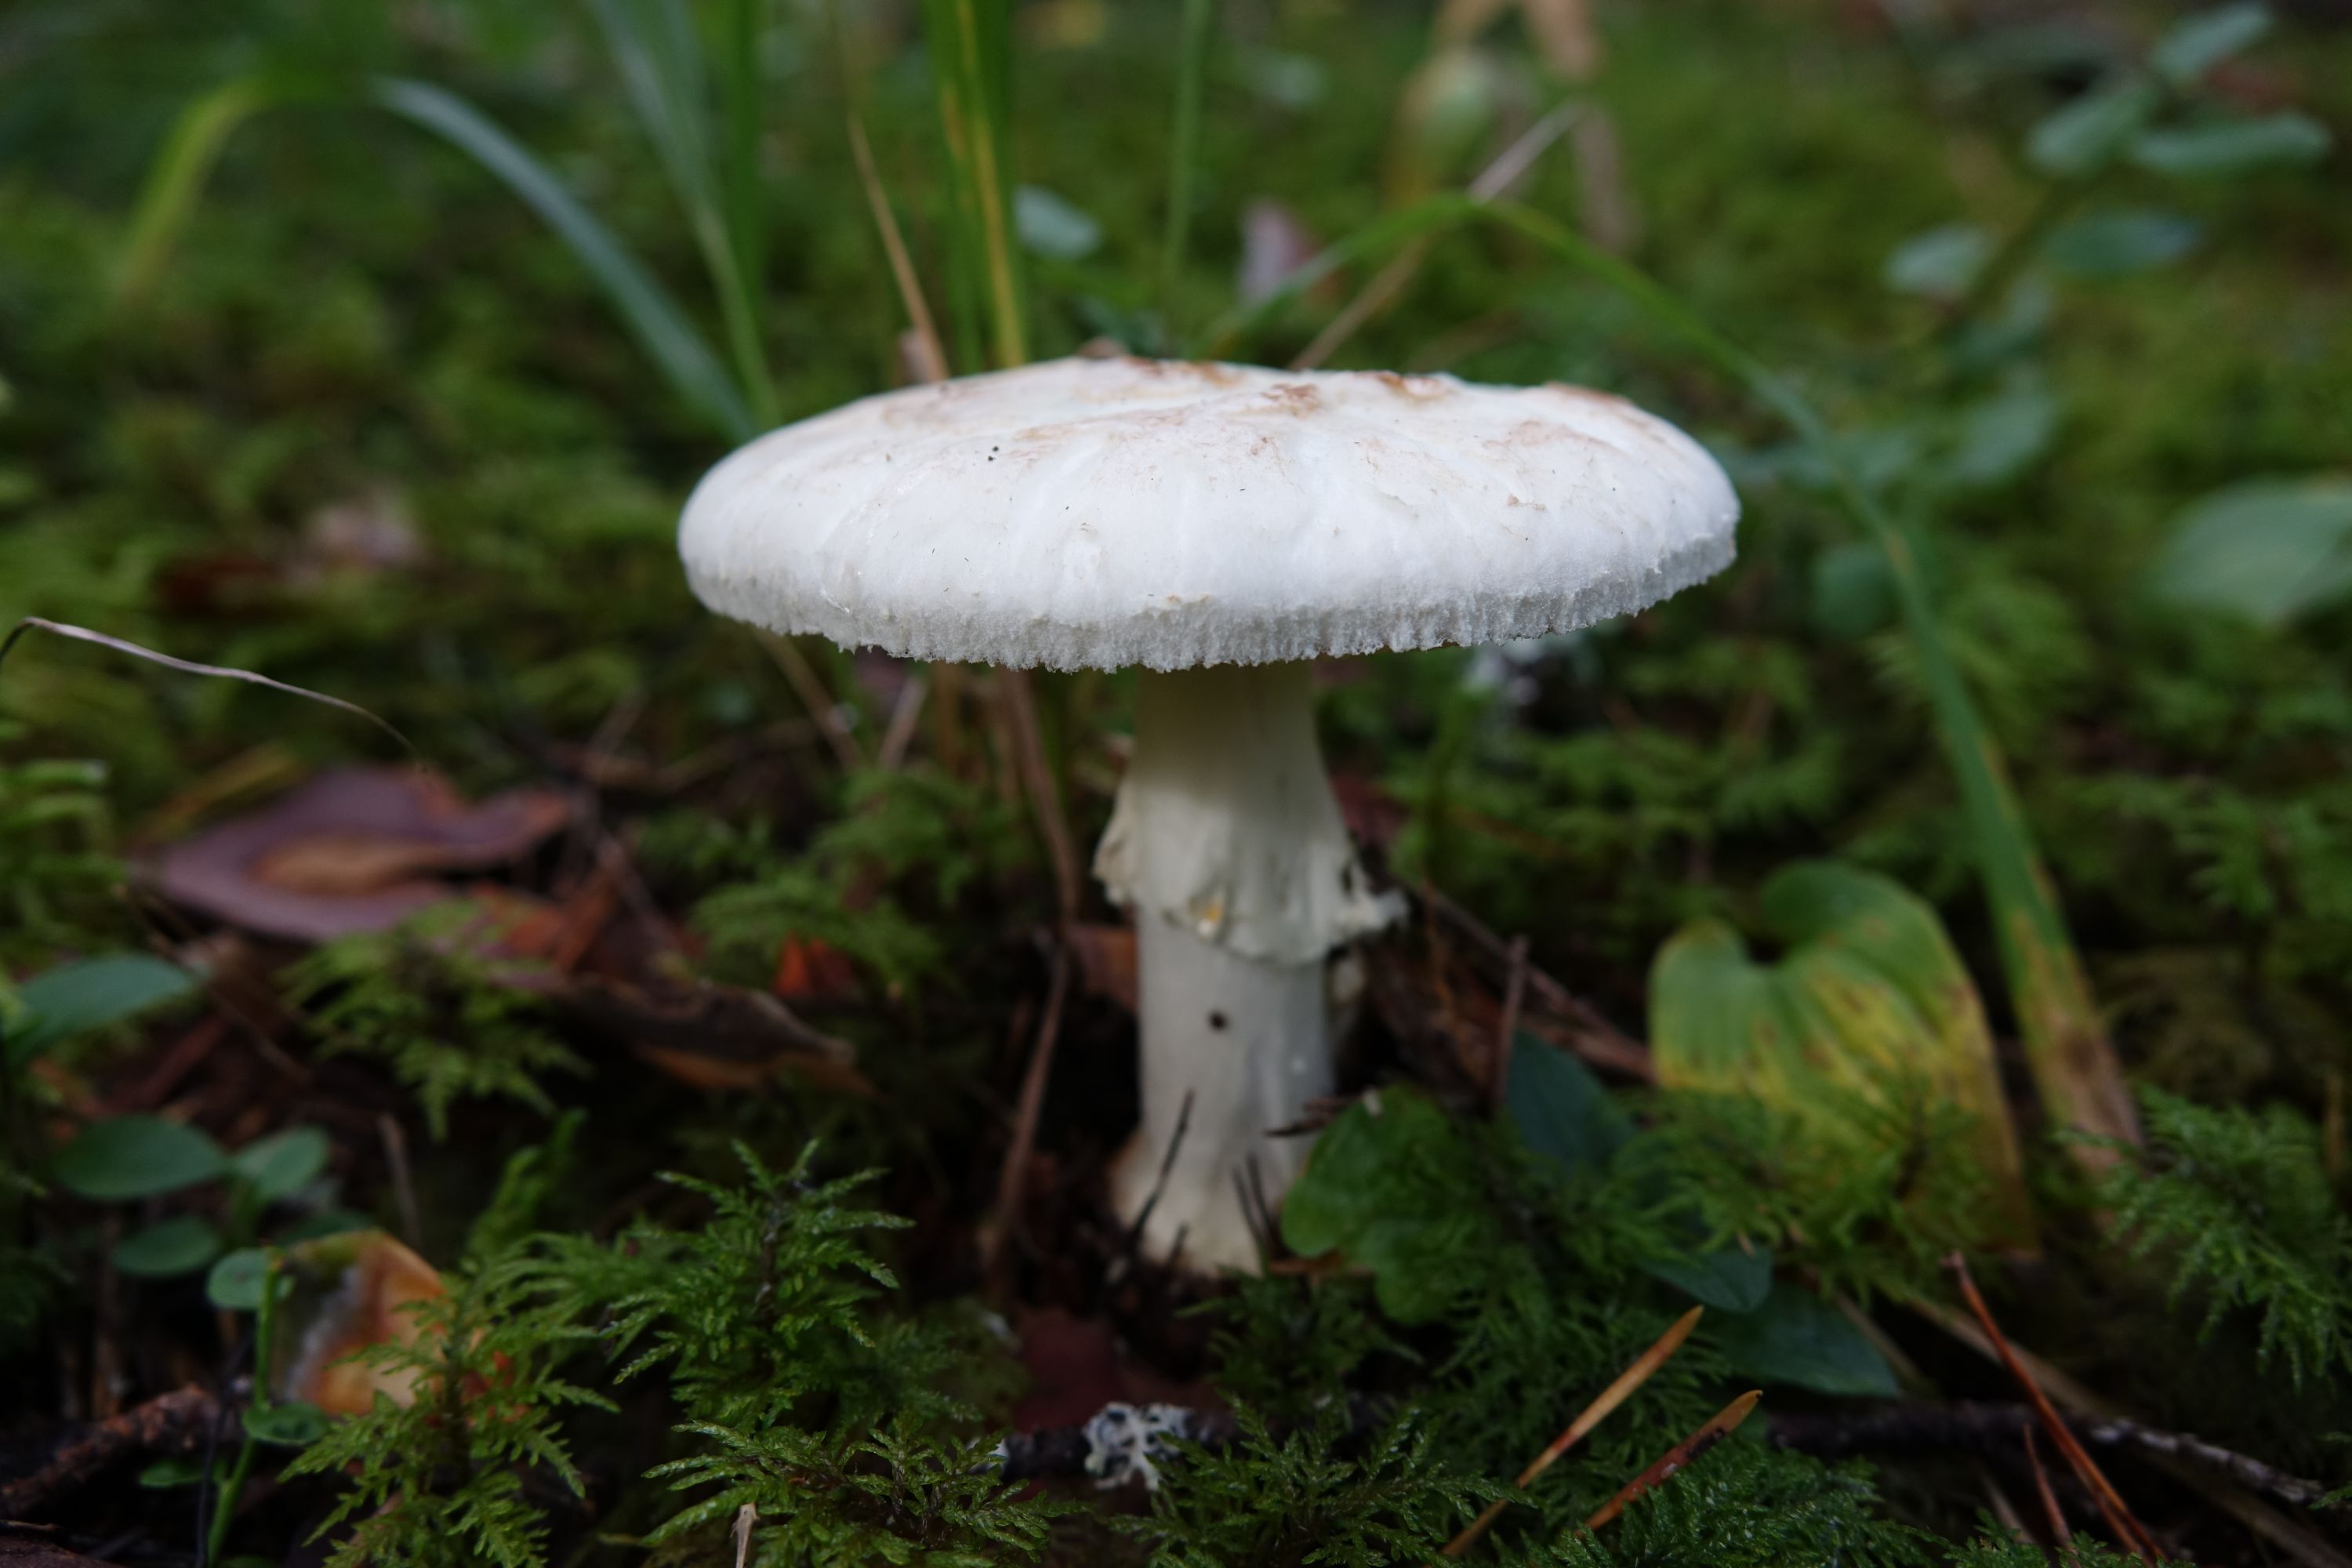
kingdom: Fungi
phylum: Basidiomycota
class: Agaricomycetes
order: Agaricales
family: Amanitaceae
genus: Amanita
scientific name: Amanita citrina
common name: False death-cap
